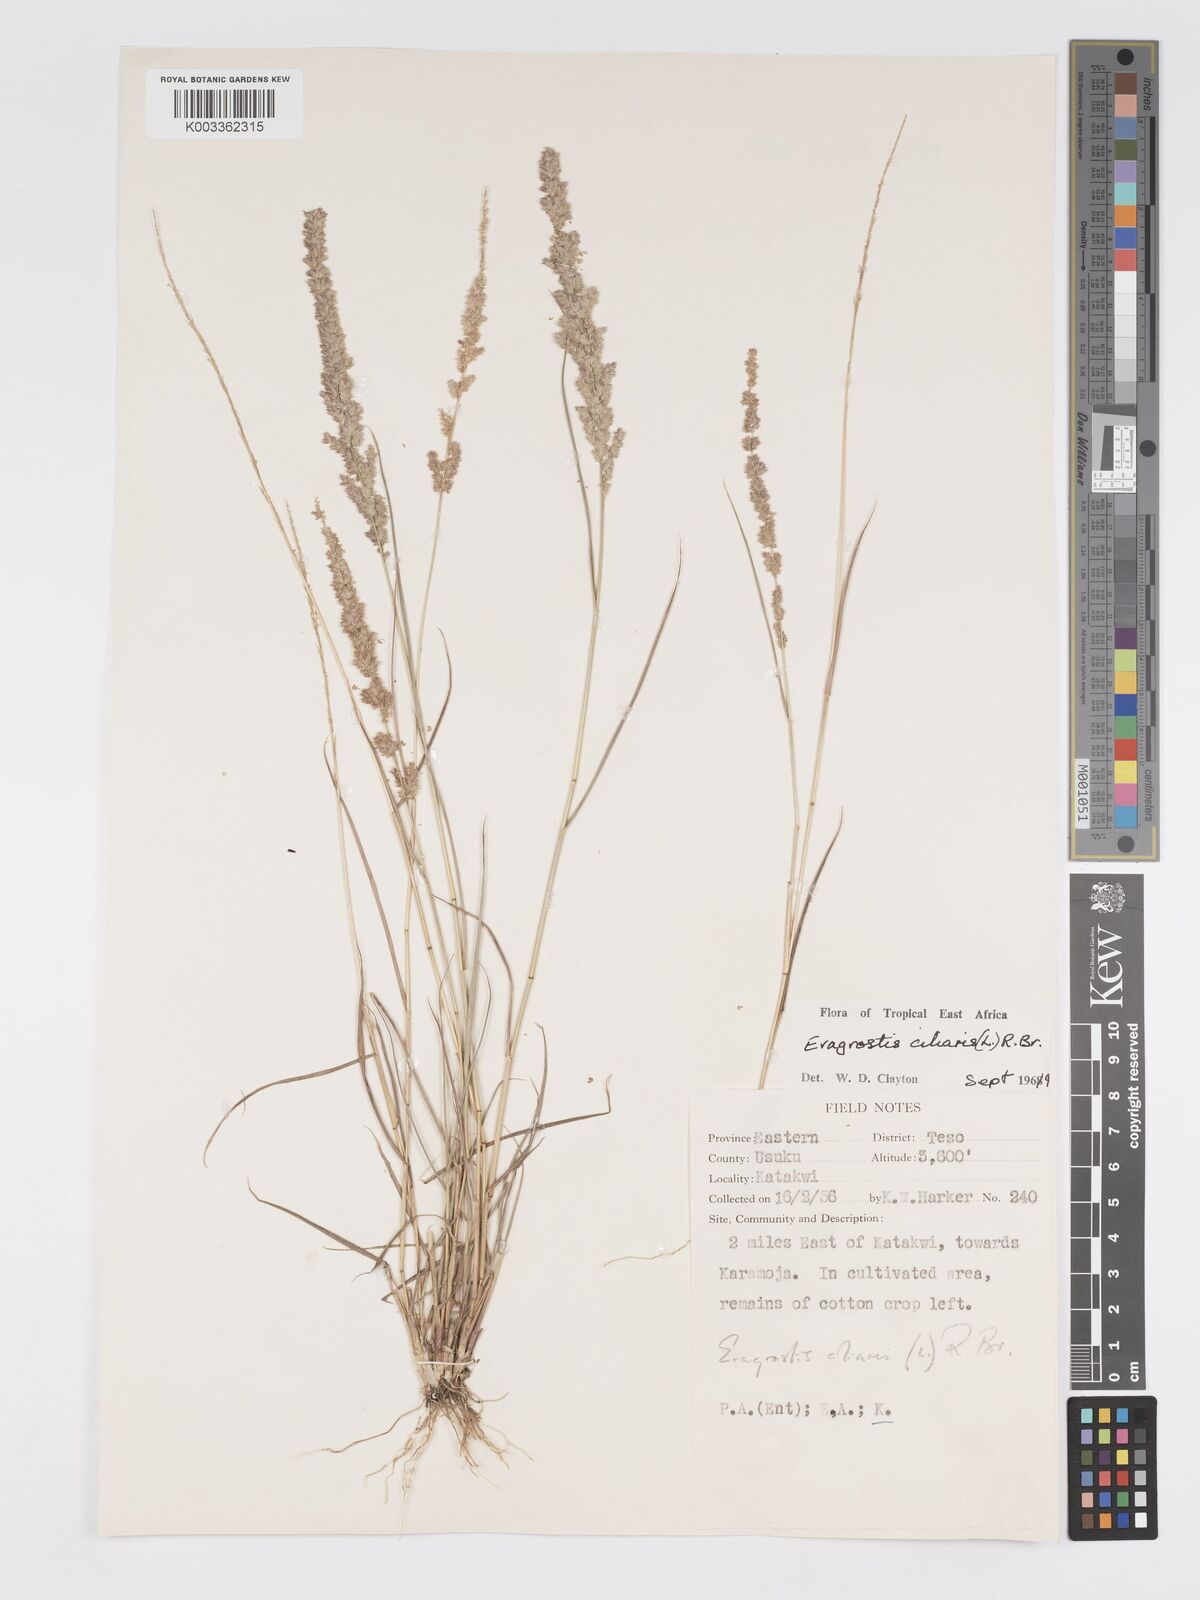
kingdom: Plantae
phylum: Tracheophyta
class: Liliopsida
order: Poales
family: Poaceae
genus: Eragrostis
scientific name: Eragrostis ciliaris
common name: Gophertail lovegrass
